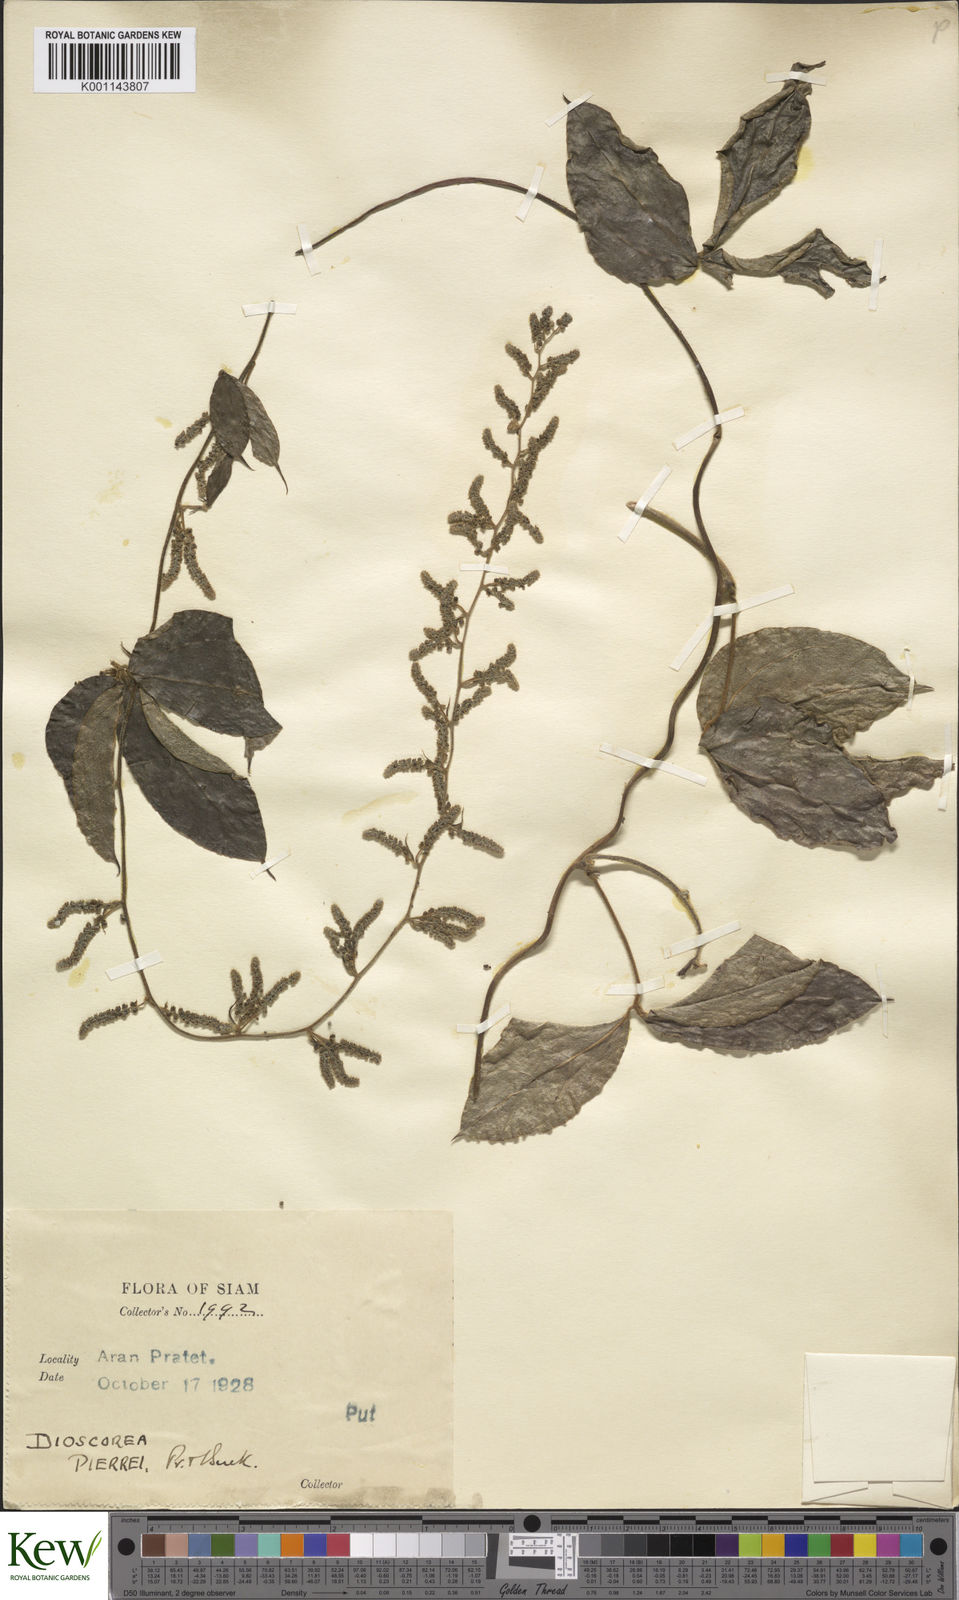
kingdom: Plantae
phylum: Tracheophyta
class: Liliopsida
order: Dioscoreales
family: Dioscoreaceae
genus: Dioscorea
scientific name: Dioscorea pierrei
